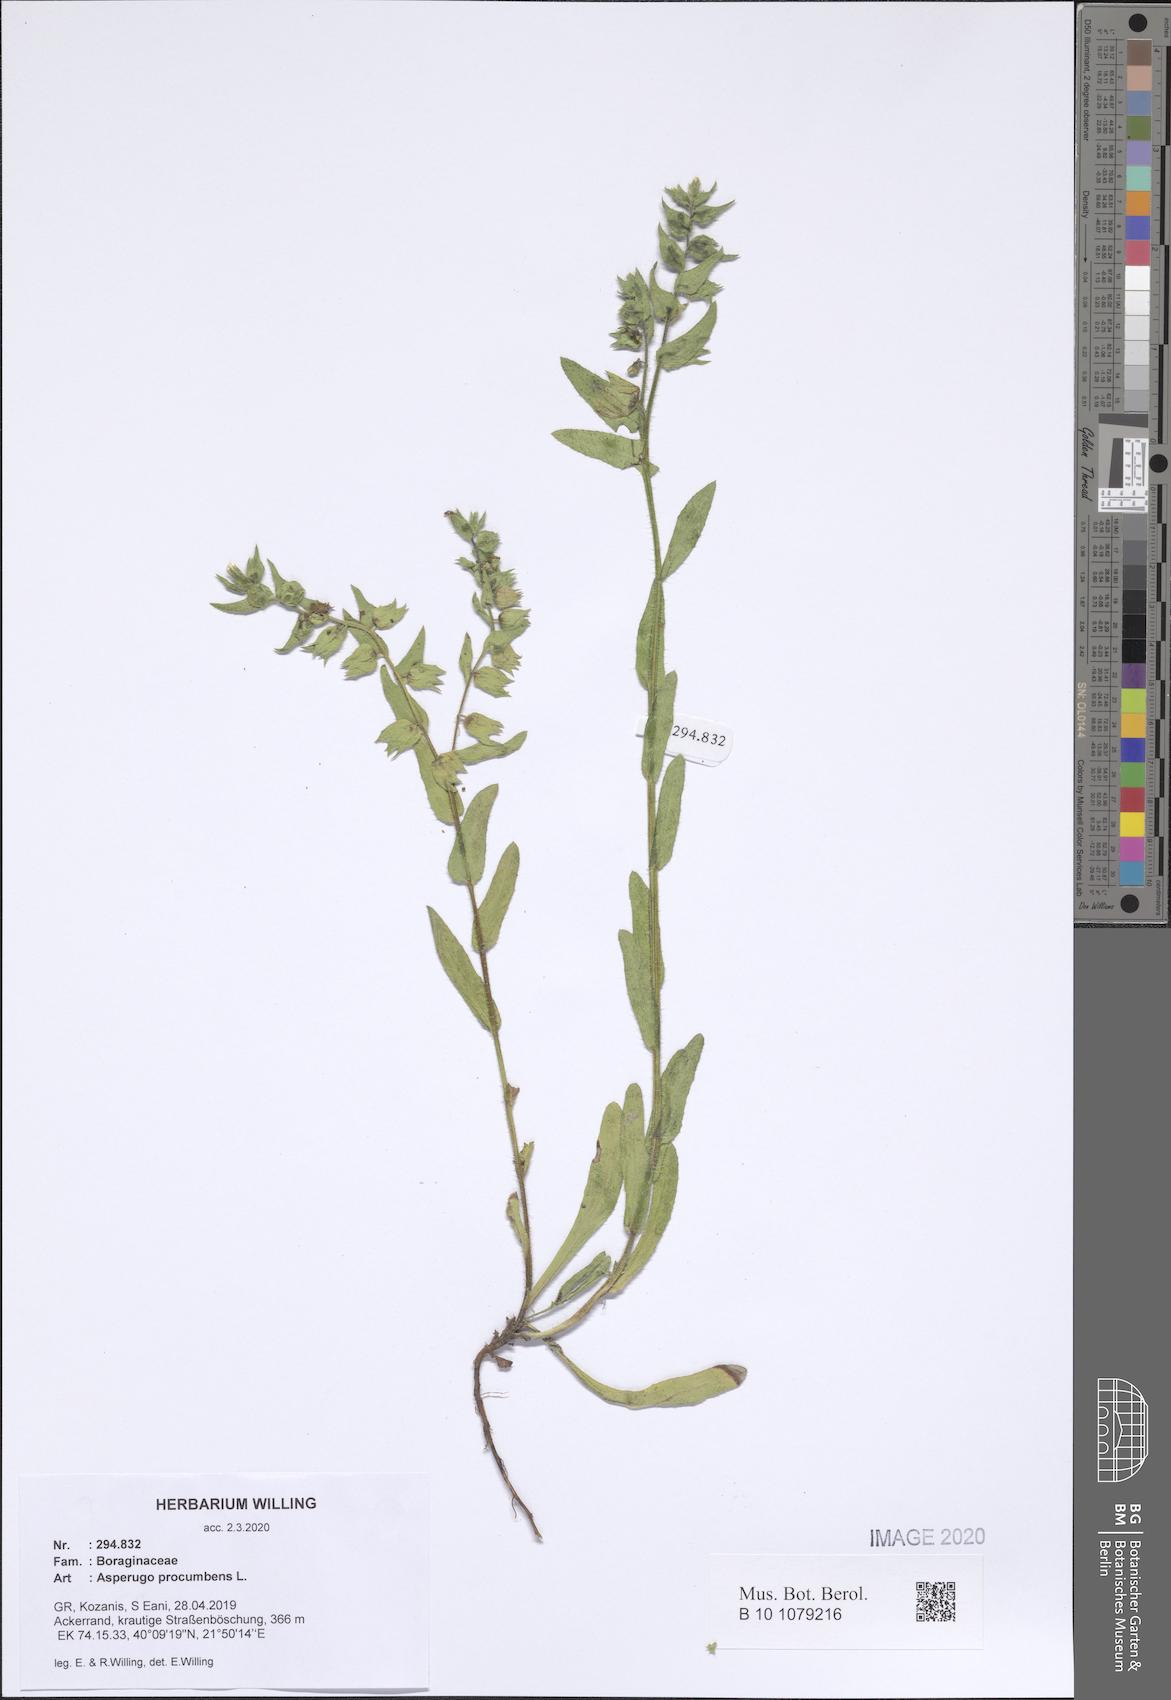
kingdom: Plantae
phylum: Tracheophyta
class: Magnoliopsida
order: Boraginales
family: Boraginaceae
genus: Asperugo
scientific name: Asperugo procumbens
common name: Madwort
